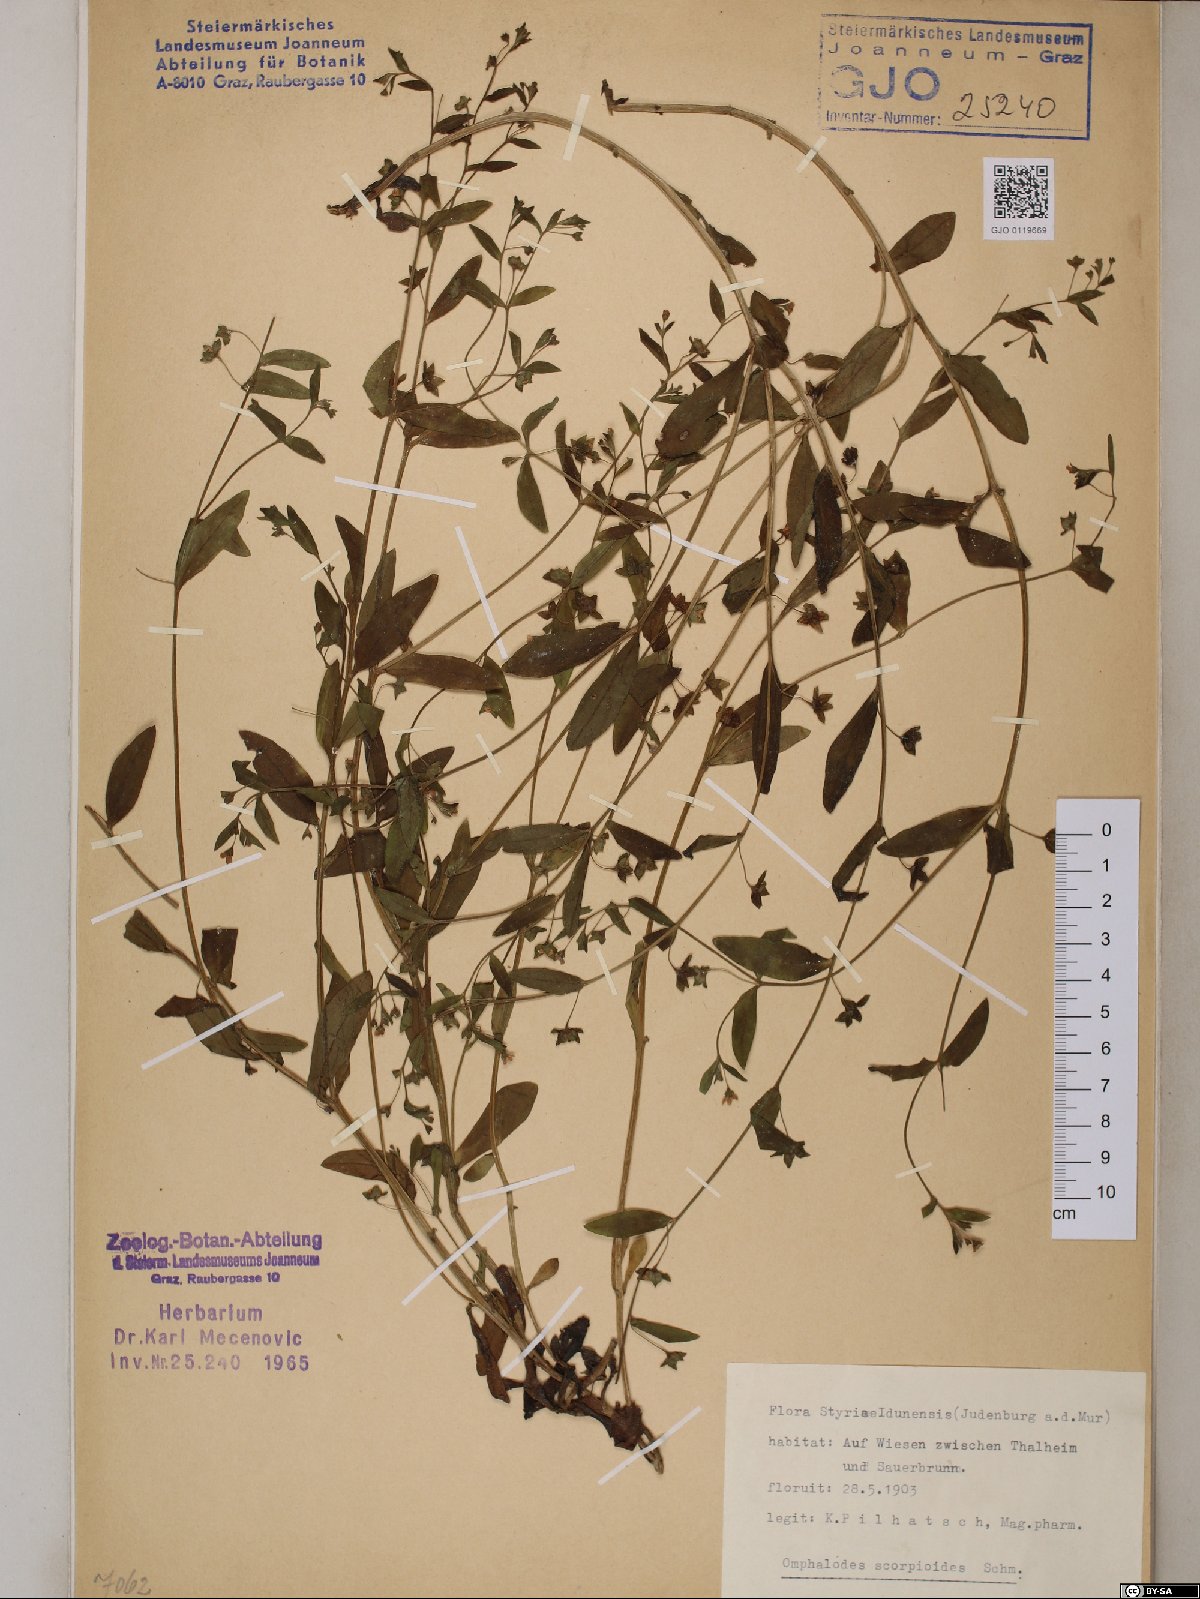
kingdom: Plantae
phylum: Tracheophyta
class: Magnoliopsida
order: Boraginales
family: Boraginaceae
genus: Memoremea
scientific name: Memoremea scorpioides
